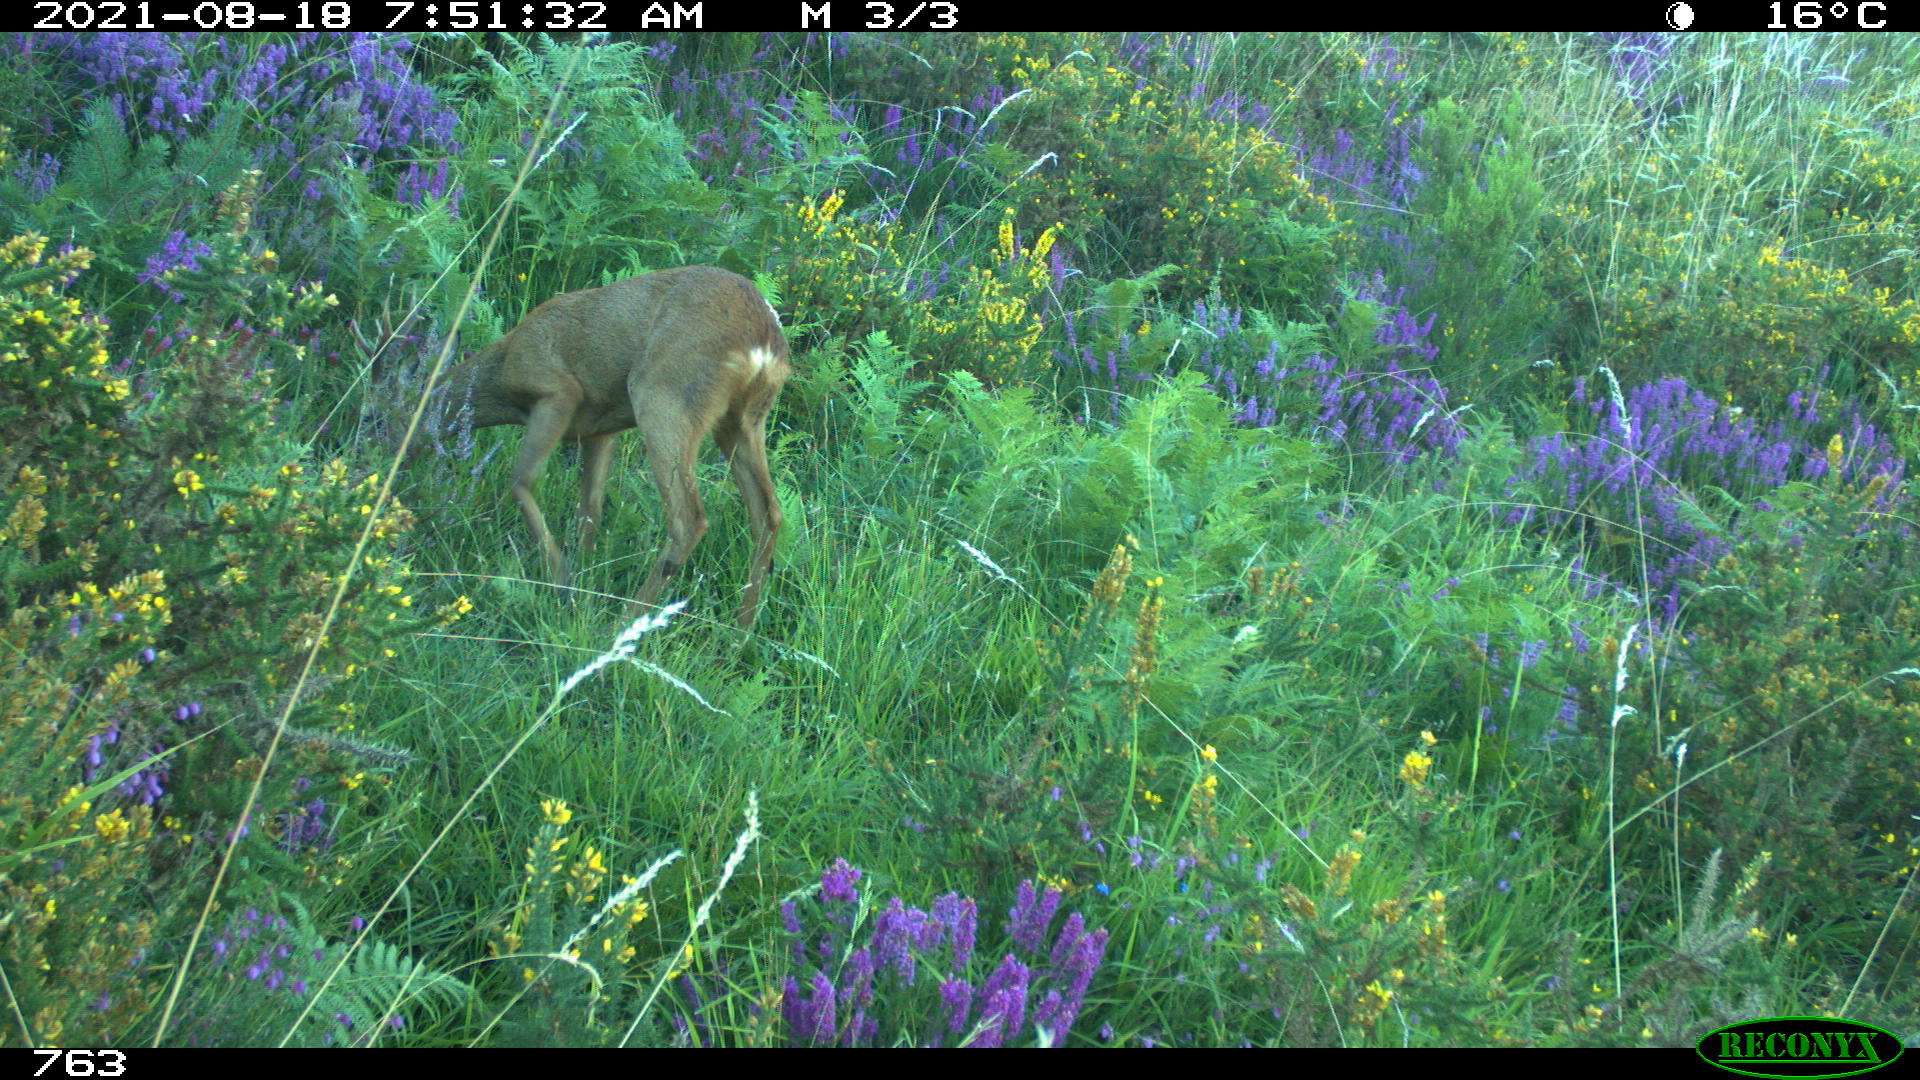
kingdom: Animalia
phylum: Chordata
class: Mammalia
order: Artiodactyla
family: Cervidae
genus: Capreolus
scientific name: Capreolus capreolus
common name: Western roe deer
